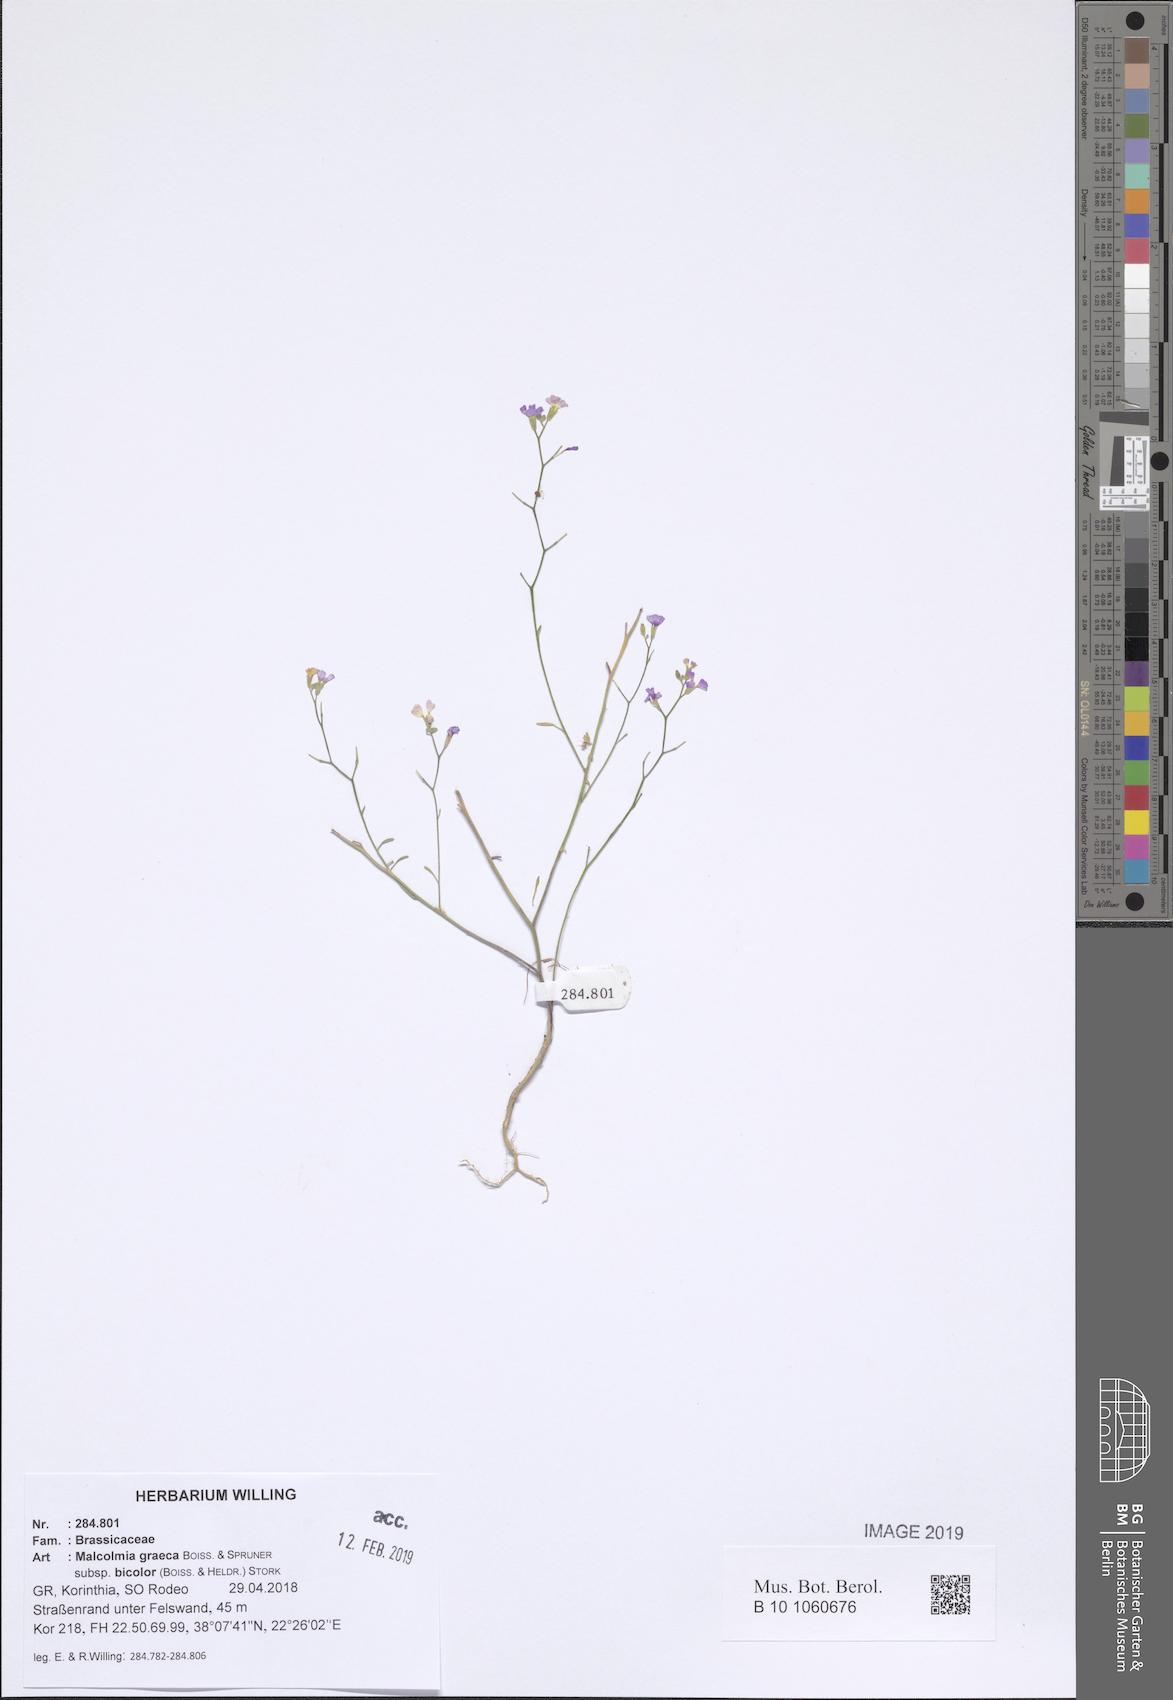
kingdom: Plantae
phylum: Tracheophyta
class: Magnoliopsida
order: Brassicales
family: Brassicaceae
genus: Malcolmia
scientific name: Malcolmia graeca
